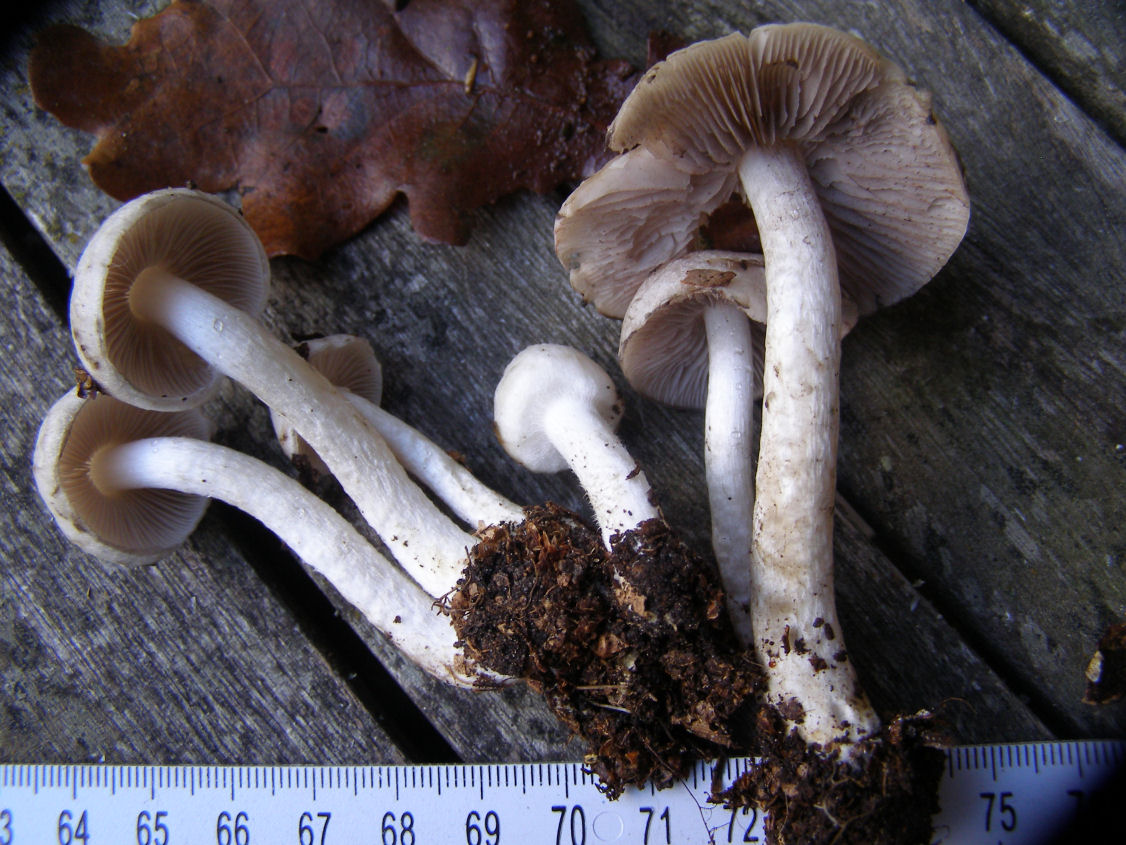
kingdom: Fungi
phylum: Basidiomycota
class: Agaricomycetes
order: Agaricales
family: Psathyrellaceae
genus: Psathyrella
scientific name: Psathyrella cotonea
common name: skællet mørkhat
